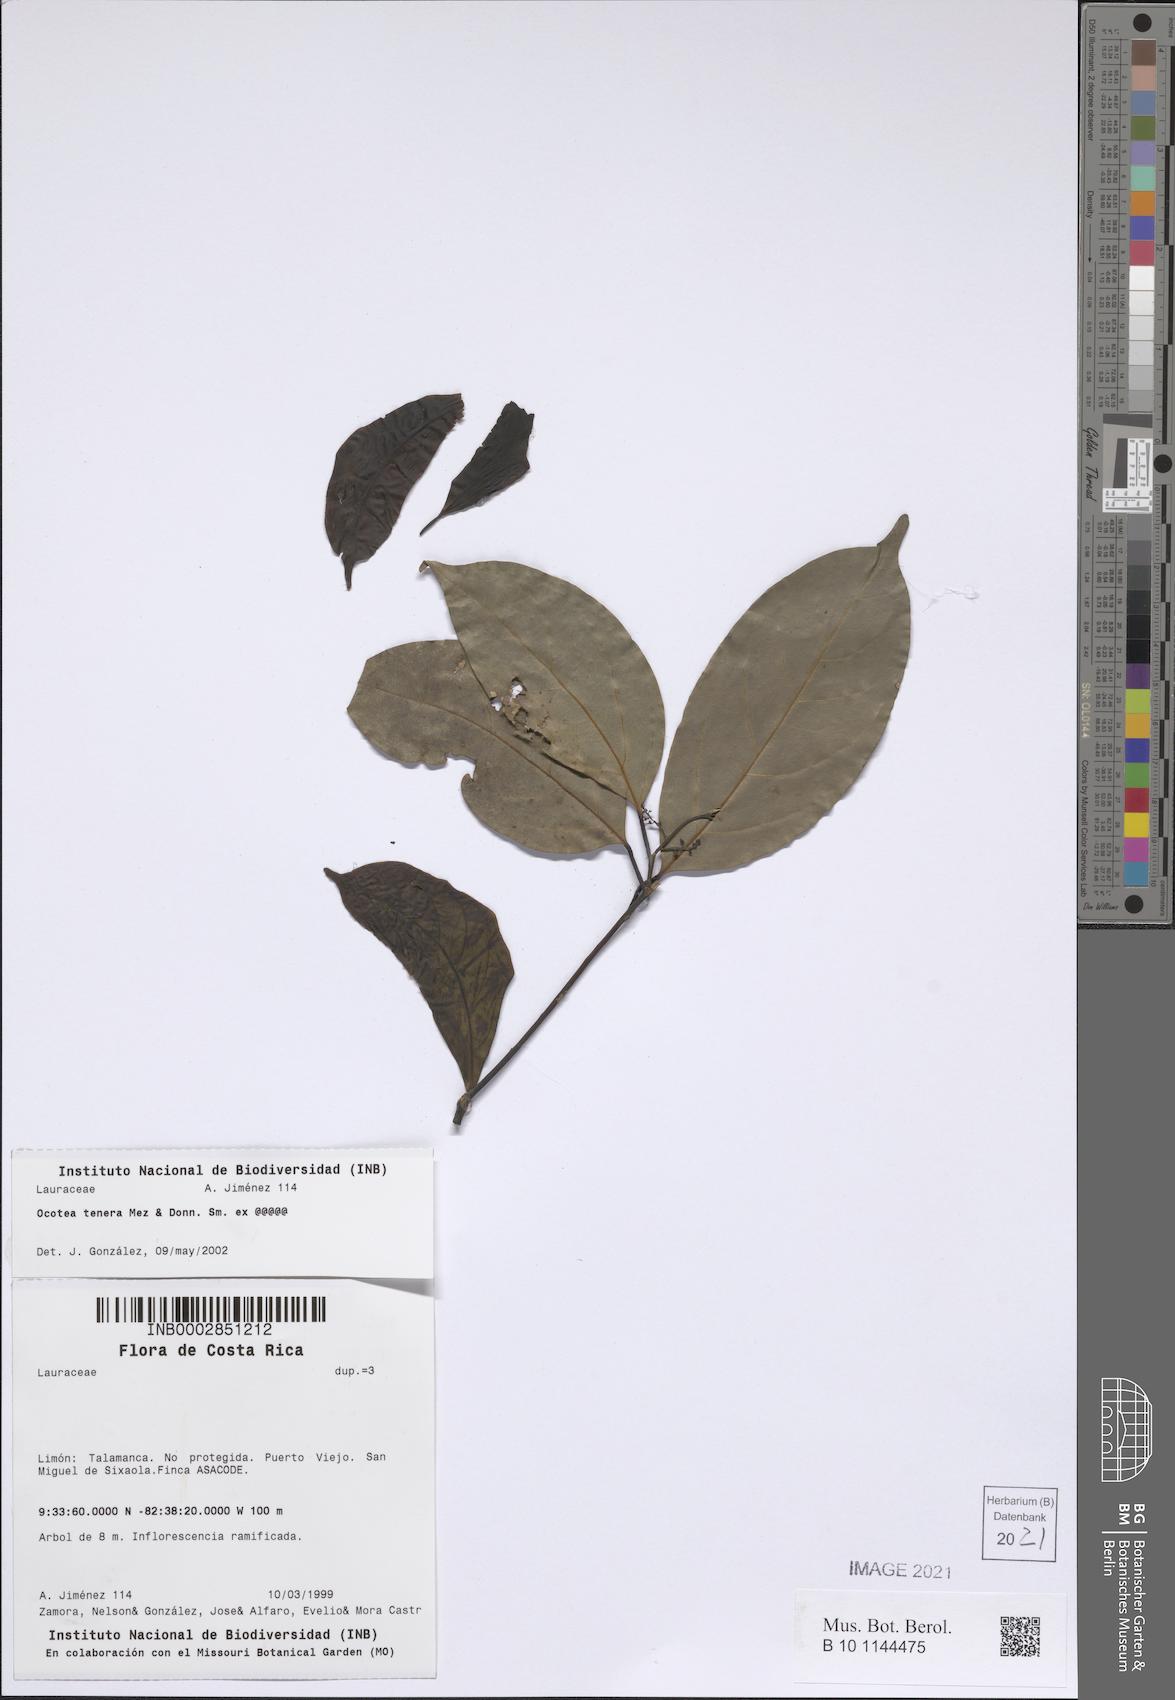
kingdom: Plantae
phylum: Tracheophyta
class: Magnoliopsida
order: Laurales
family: Lauraceae
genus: Ocotea
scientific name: Ocotea tenera
